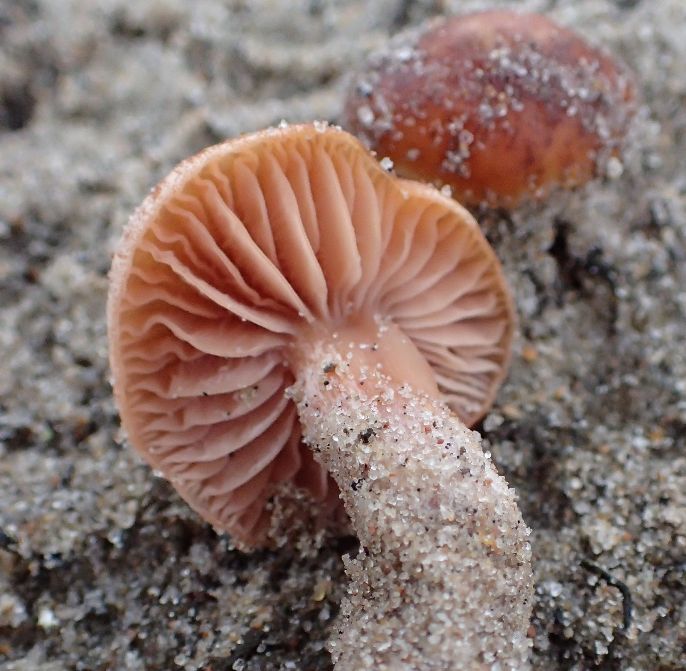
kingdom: Fungi
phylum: Basidiomycota
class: Agaricomycetes
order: Agaricales
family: Hydnangiaceae
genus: Laccaria
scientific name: Laccaria maritima
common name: klit-ametysthat
